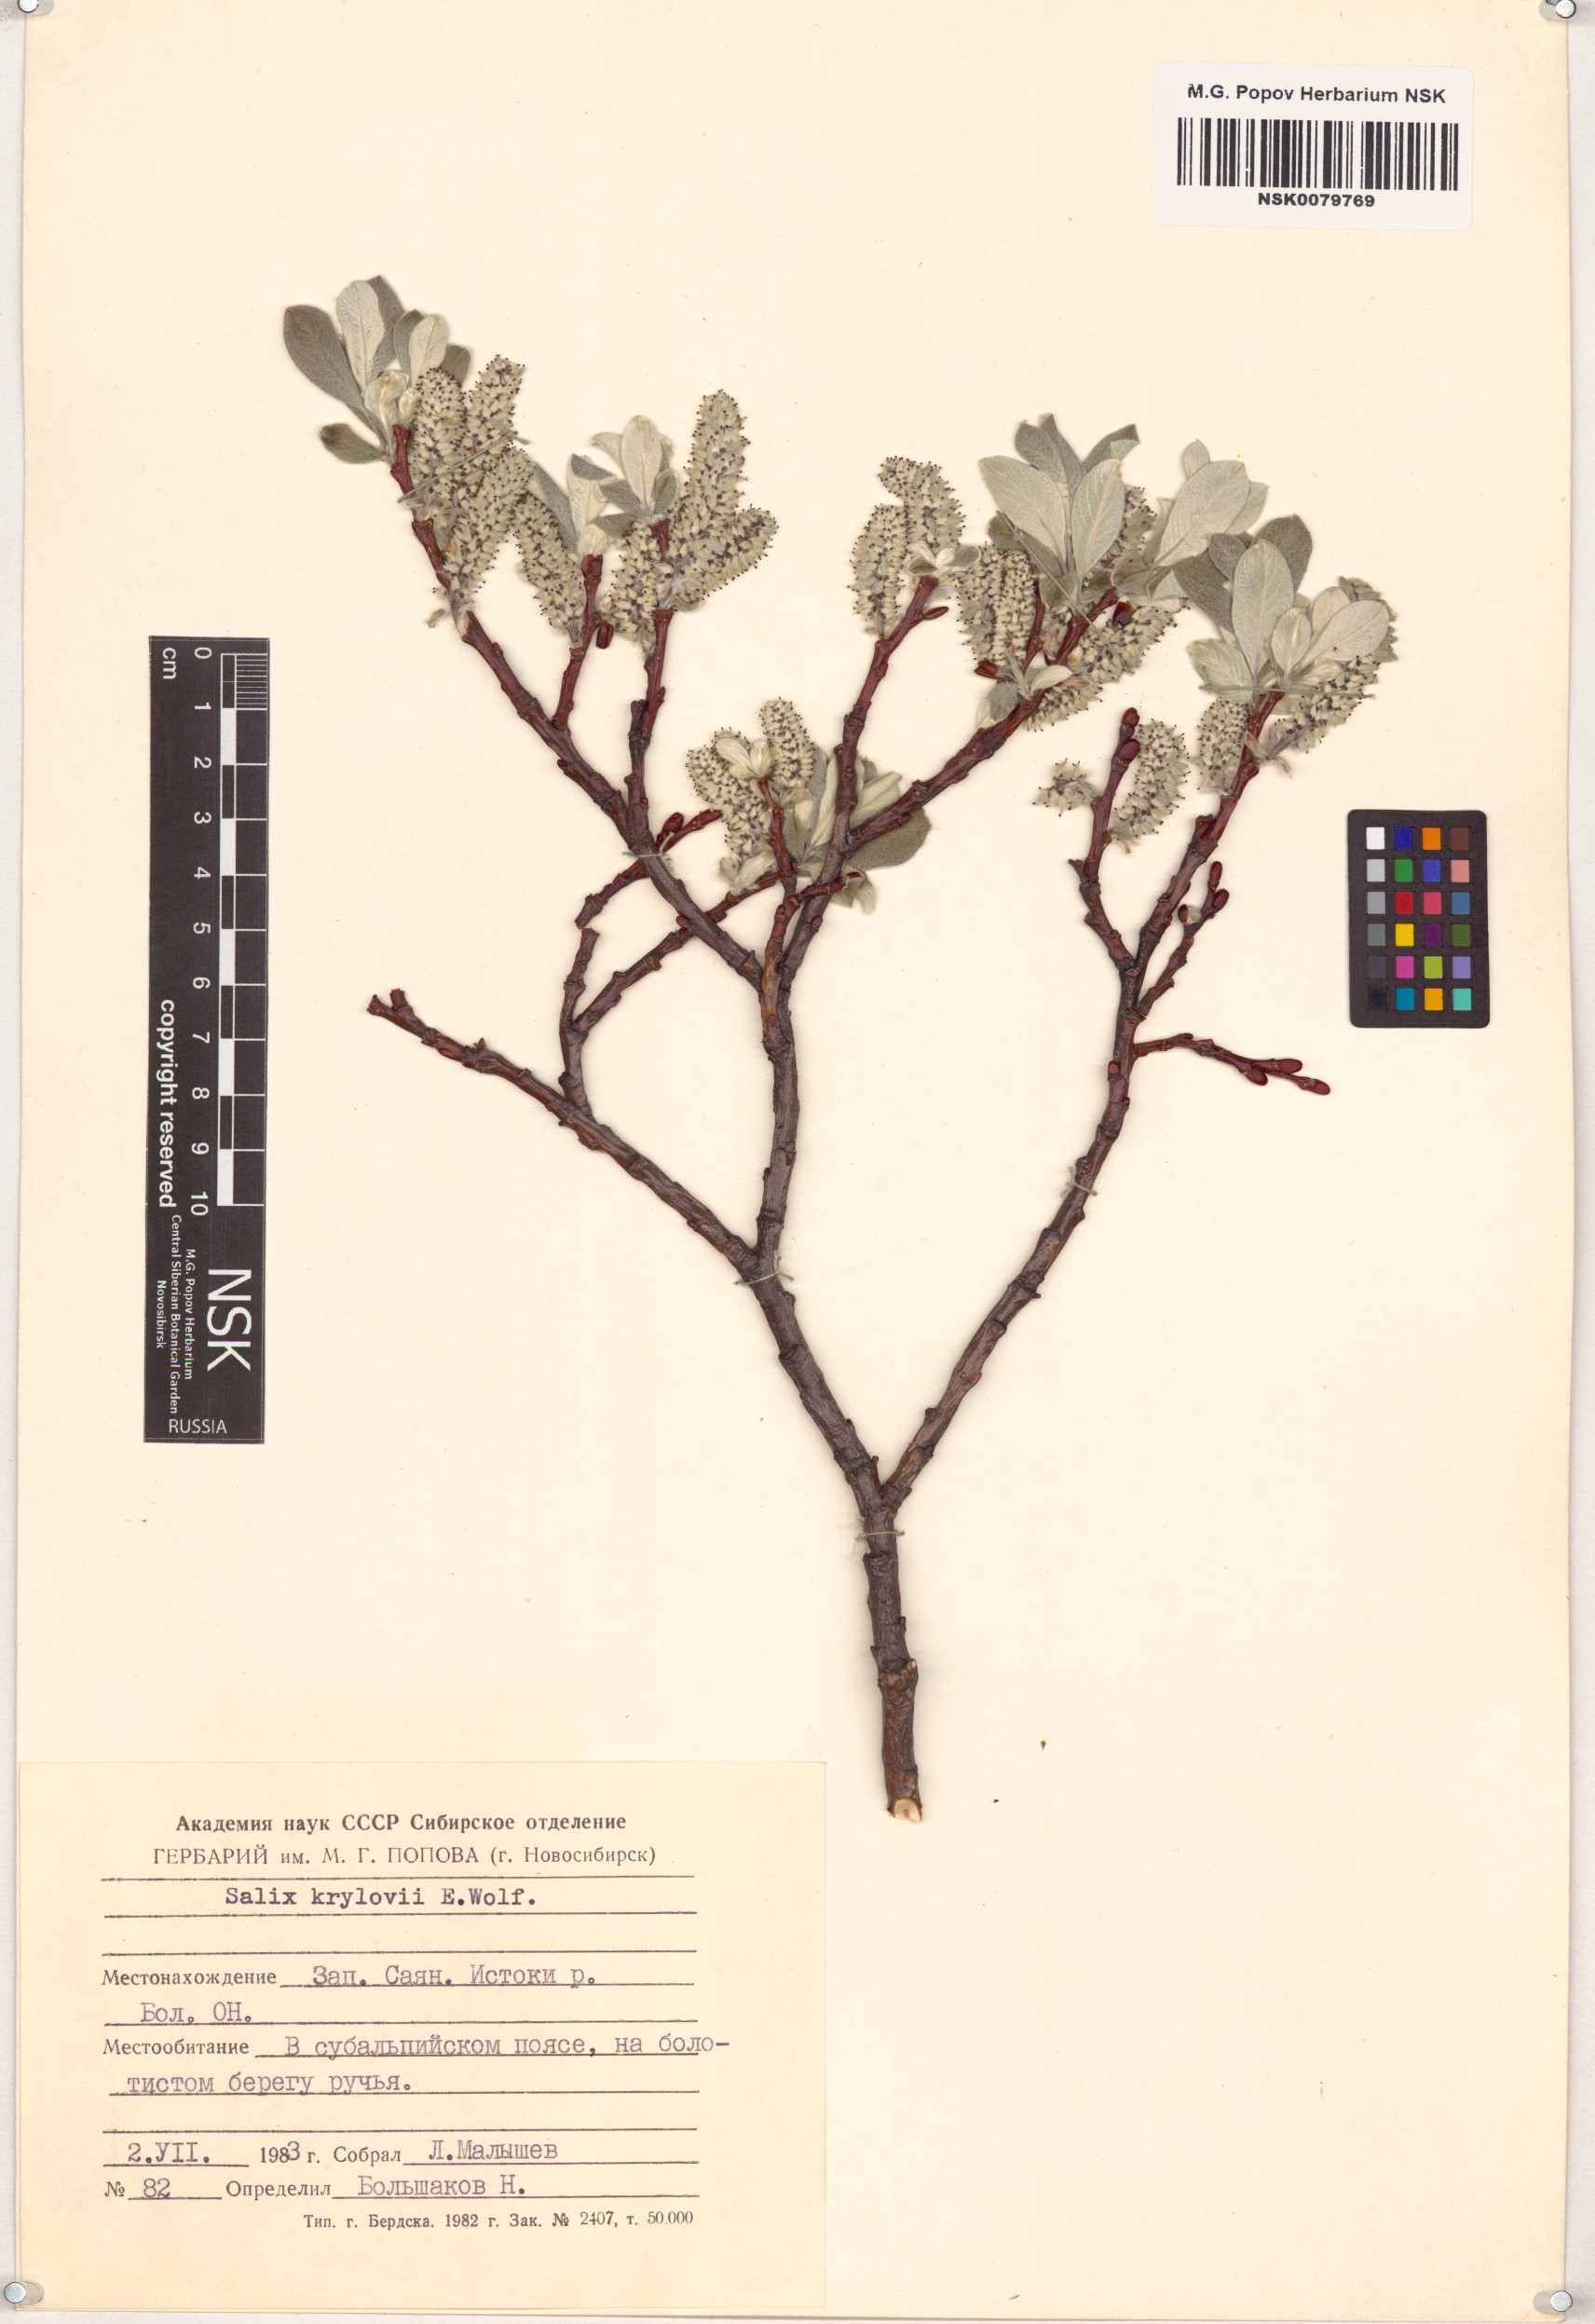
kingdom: Plantae
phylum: Tracheophyta
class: Magnoliopsida
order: Malpighiales
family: Salicaceae
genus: Salix
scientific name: Salix krylovii
